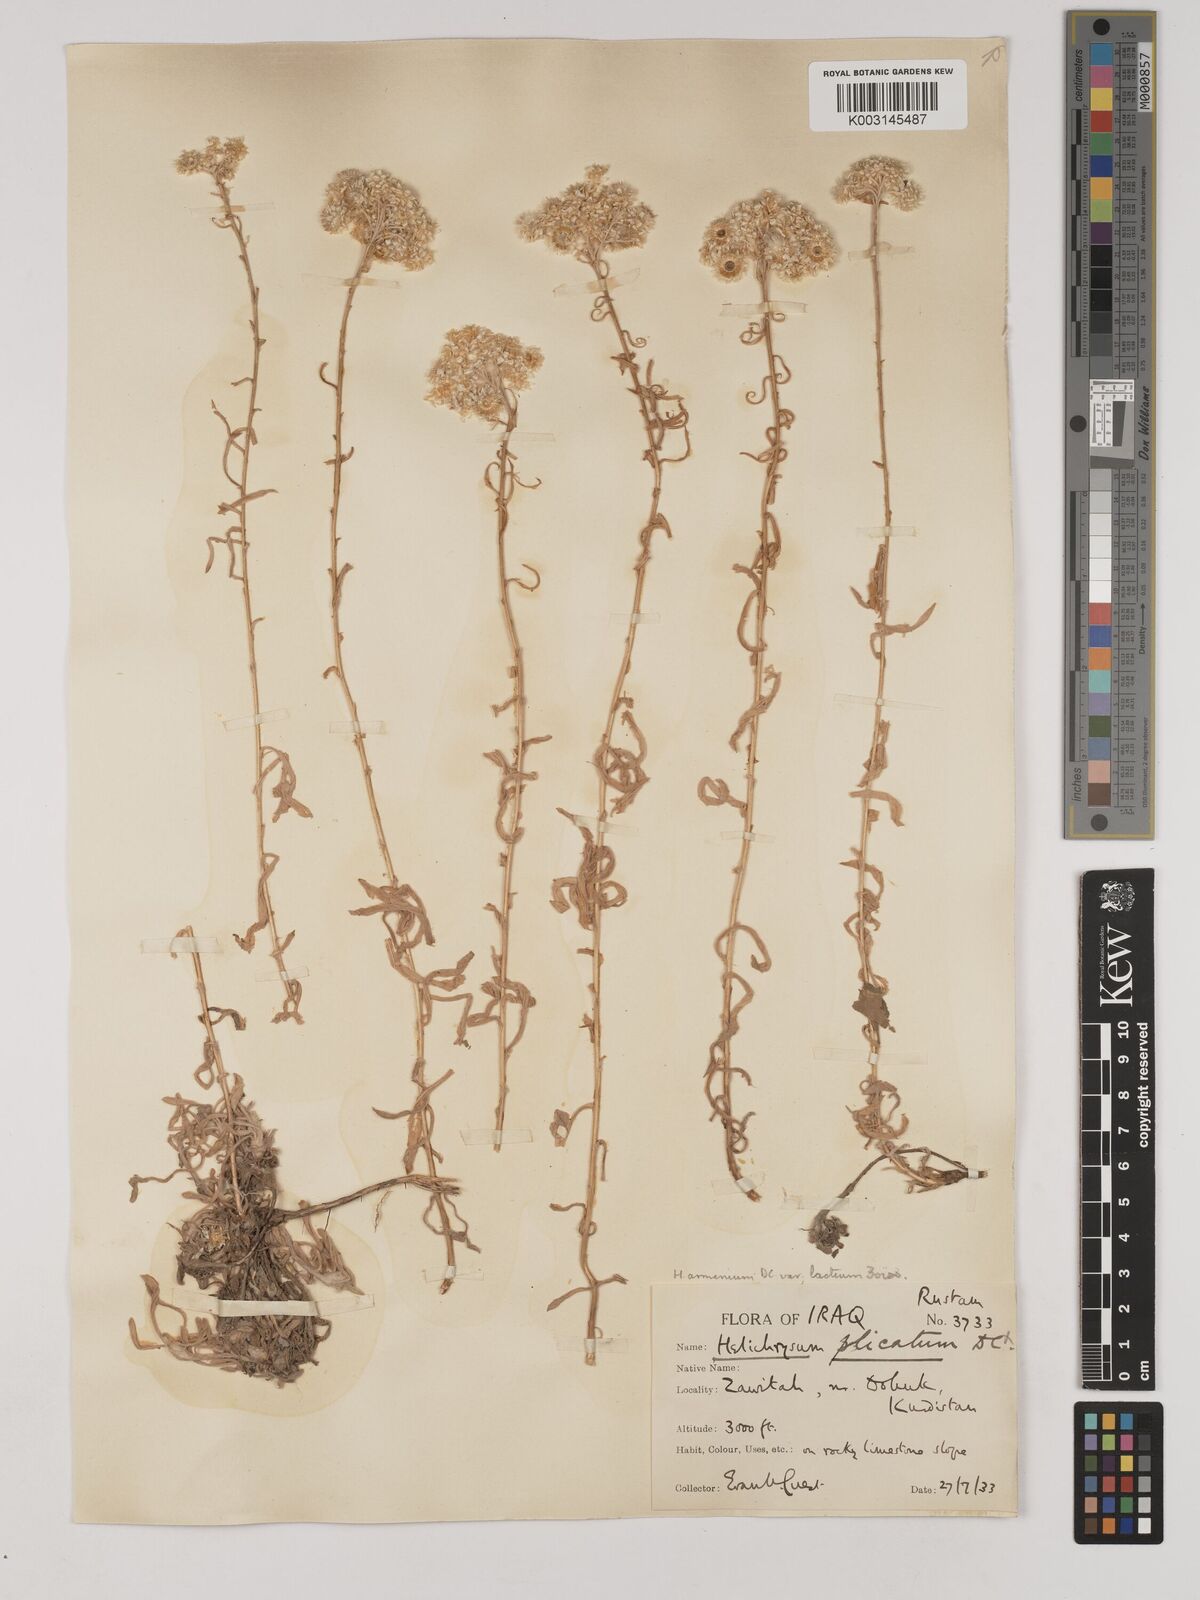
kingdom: Plantae
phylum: Tracheophyta
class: Magnoliopsida
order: Asterales
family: Asteraceae
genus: Helichrysum
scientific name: Helichrysum armenium
